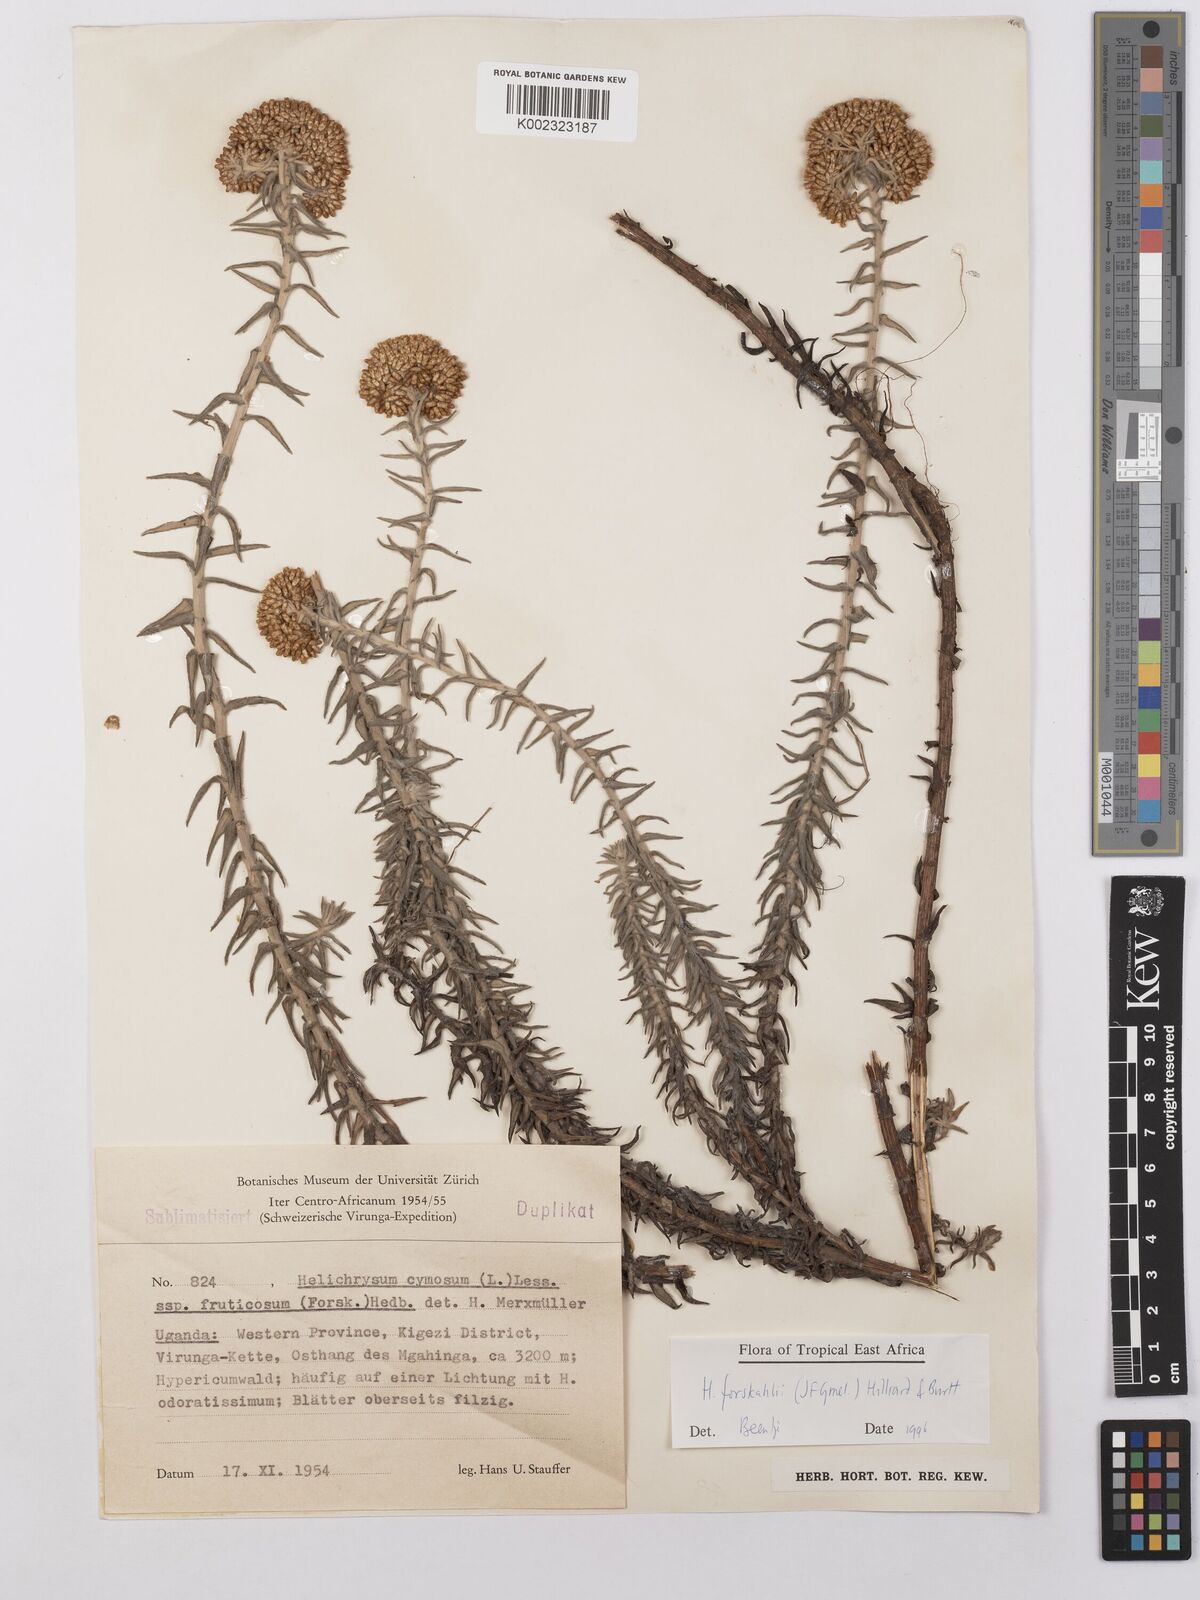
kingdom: Plantae
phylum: Tracheophyta
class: Magnoliopsida
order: Asterales
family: Asteraceae
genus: Helichrysum
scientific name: Helichrysum forskahlii
